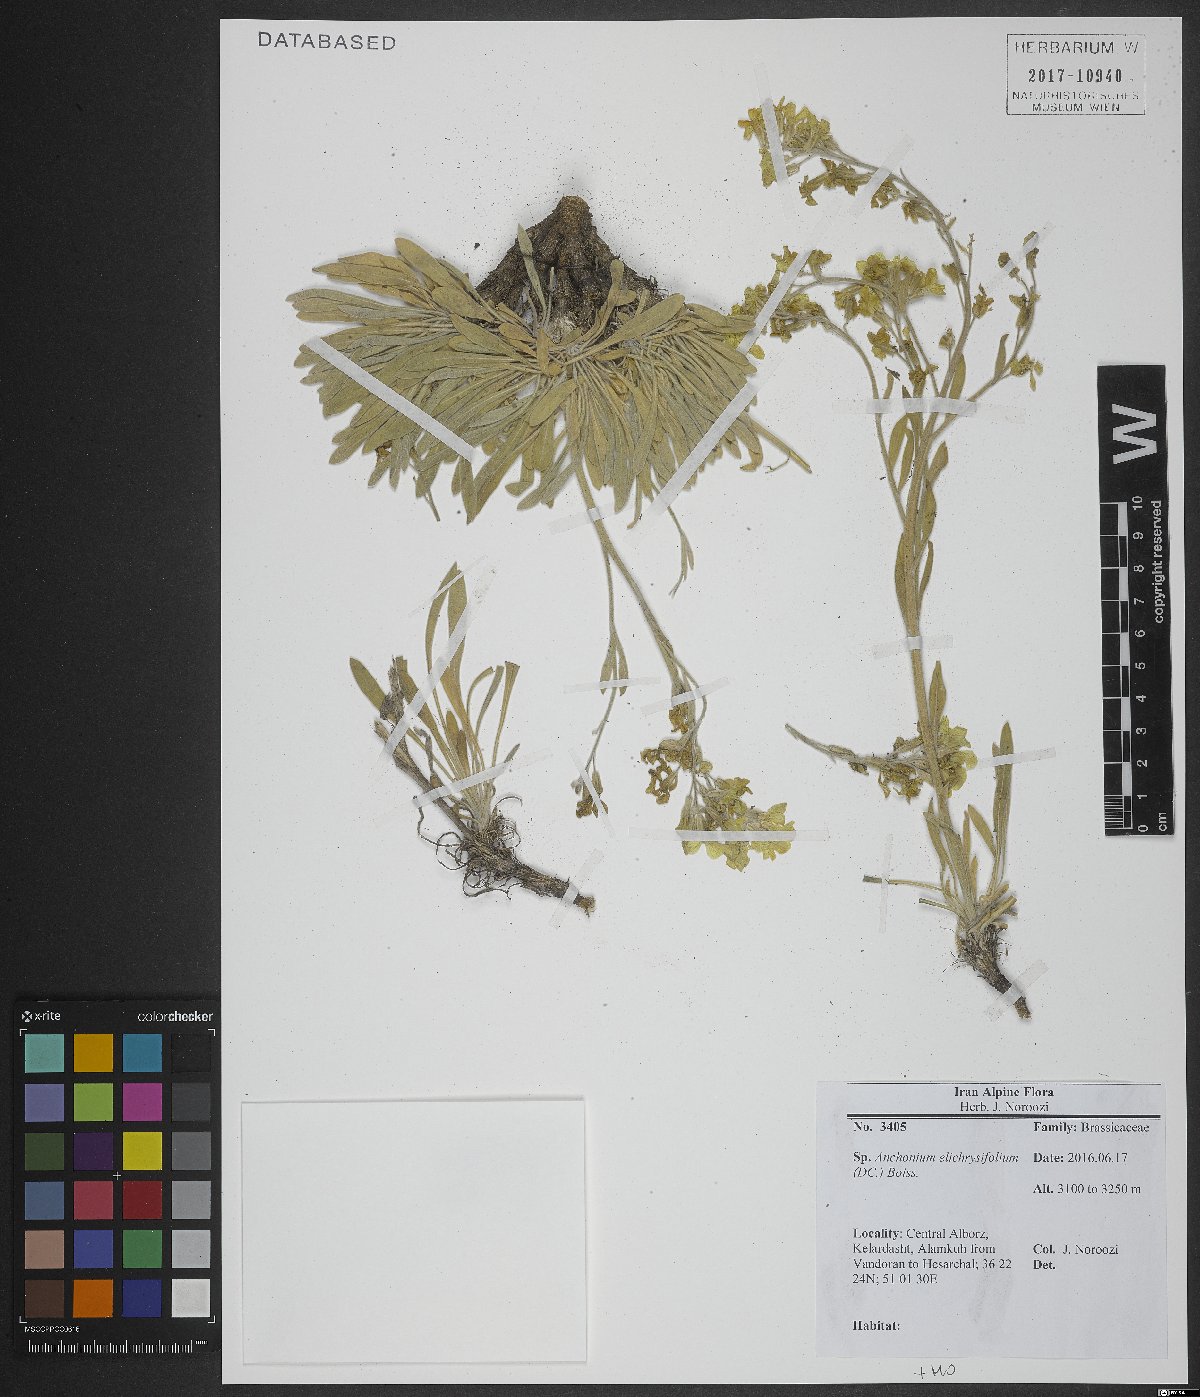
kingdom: Plantae
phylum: Tracheophyta
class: Magnoliopsida
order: Brassicales
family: Brassicaceae
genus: Anchonium
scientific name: Anchonium elichrysifolium
